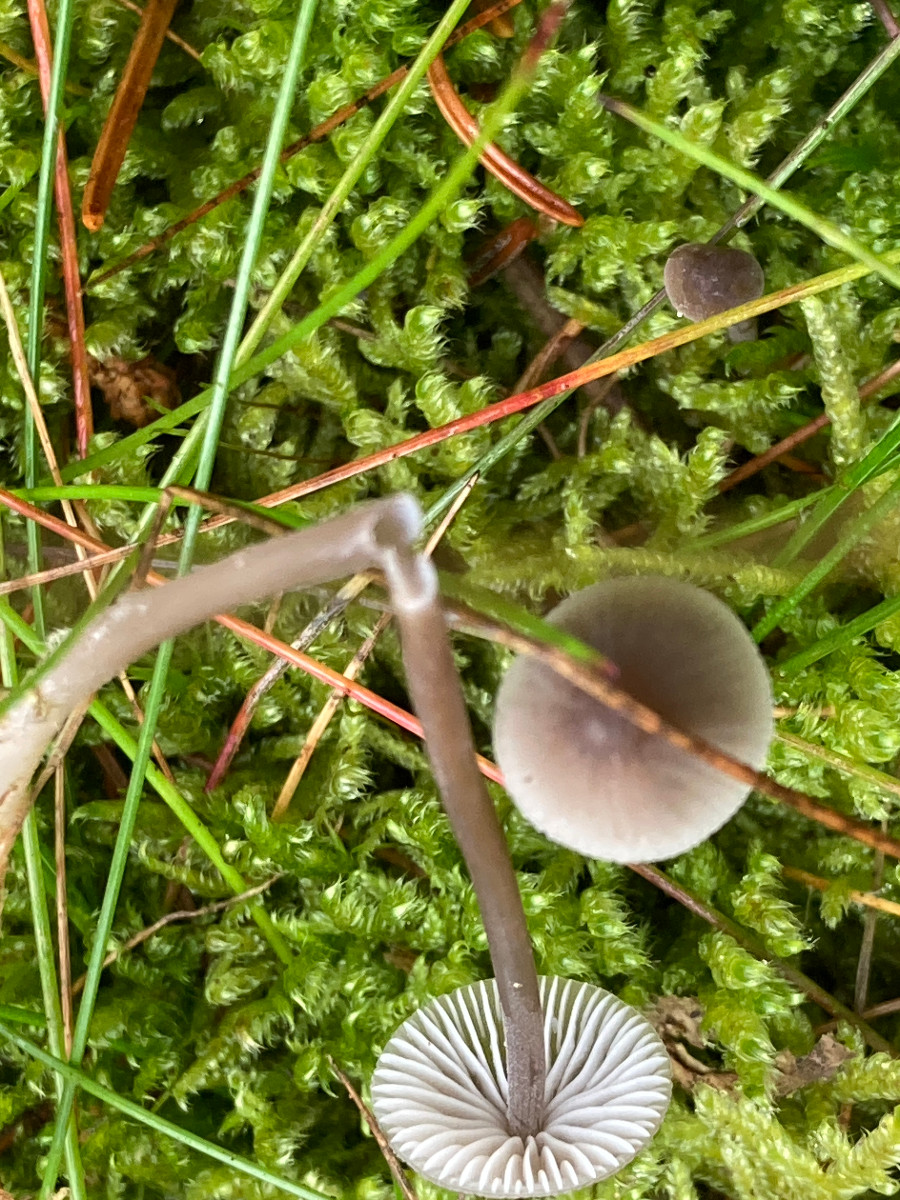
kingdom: Fungi
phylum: Basidiomycota
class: Agaricomycetes
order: Agaricales
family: Mycenaceae
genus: Mycena
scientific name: Mycena galopus
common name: hvidmælket huesvamp
